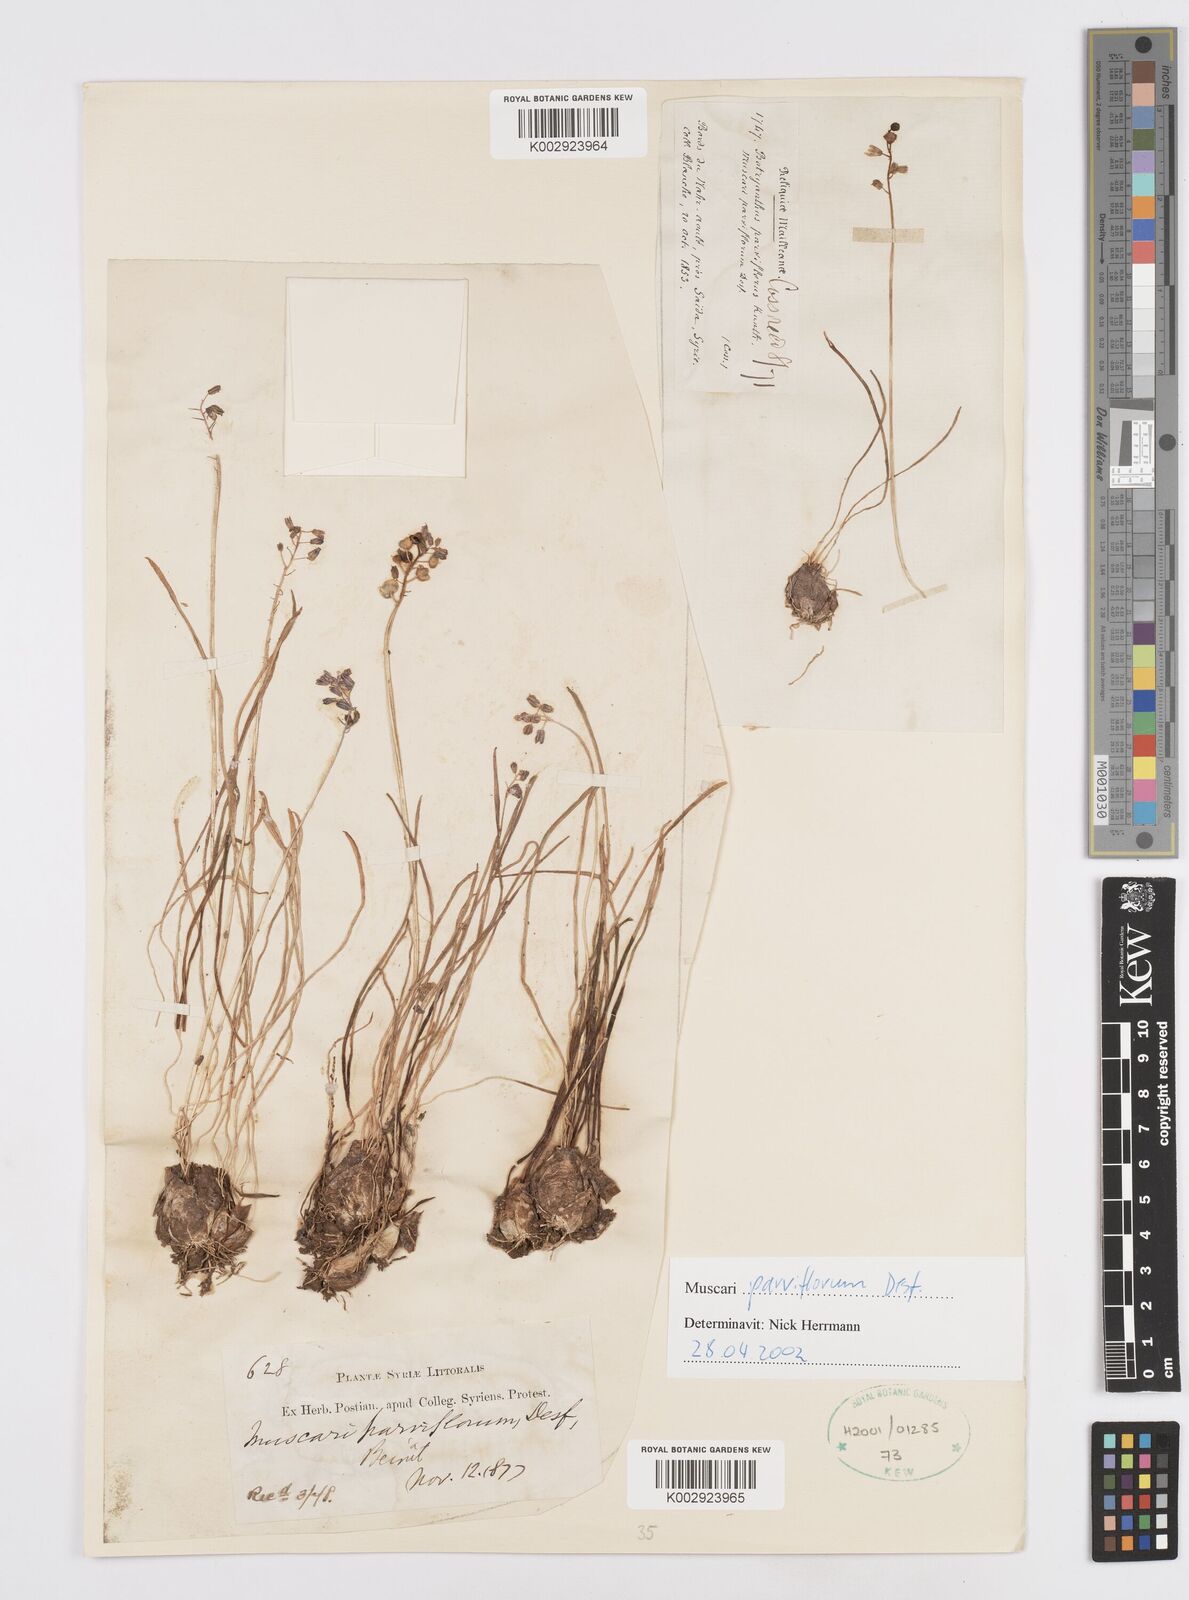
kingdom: Plantae
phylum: Tracheophyta
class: Liliopsida
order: Asparagales
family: Asparagaceae
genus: Muscari
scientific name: Muscari parviflorum
